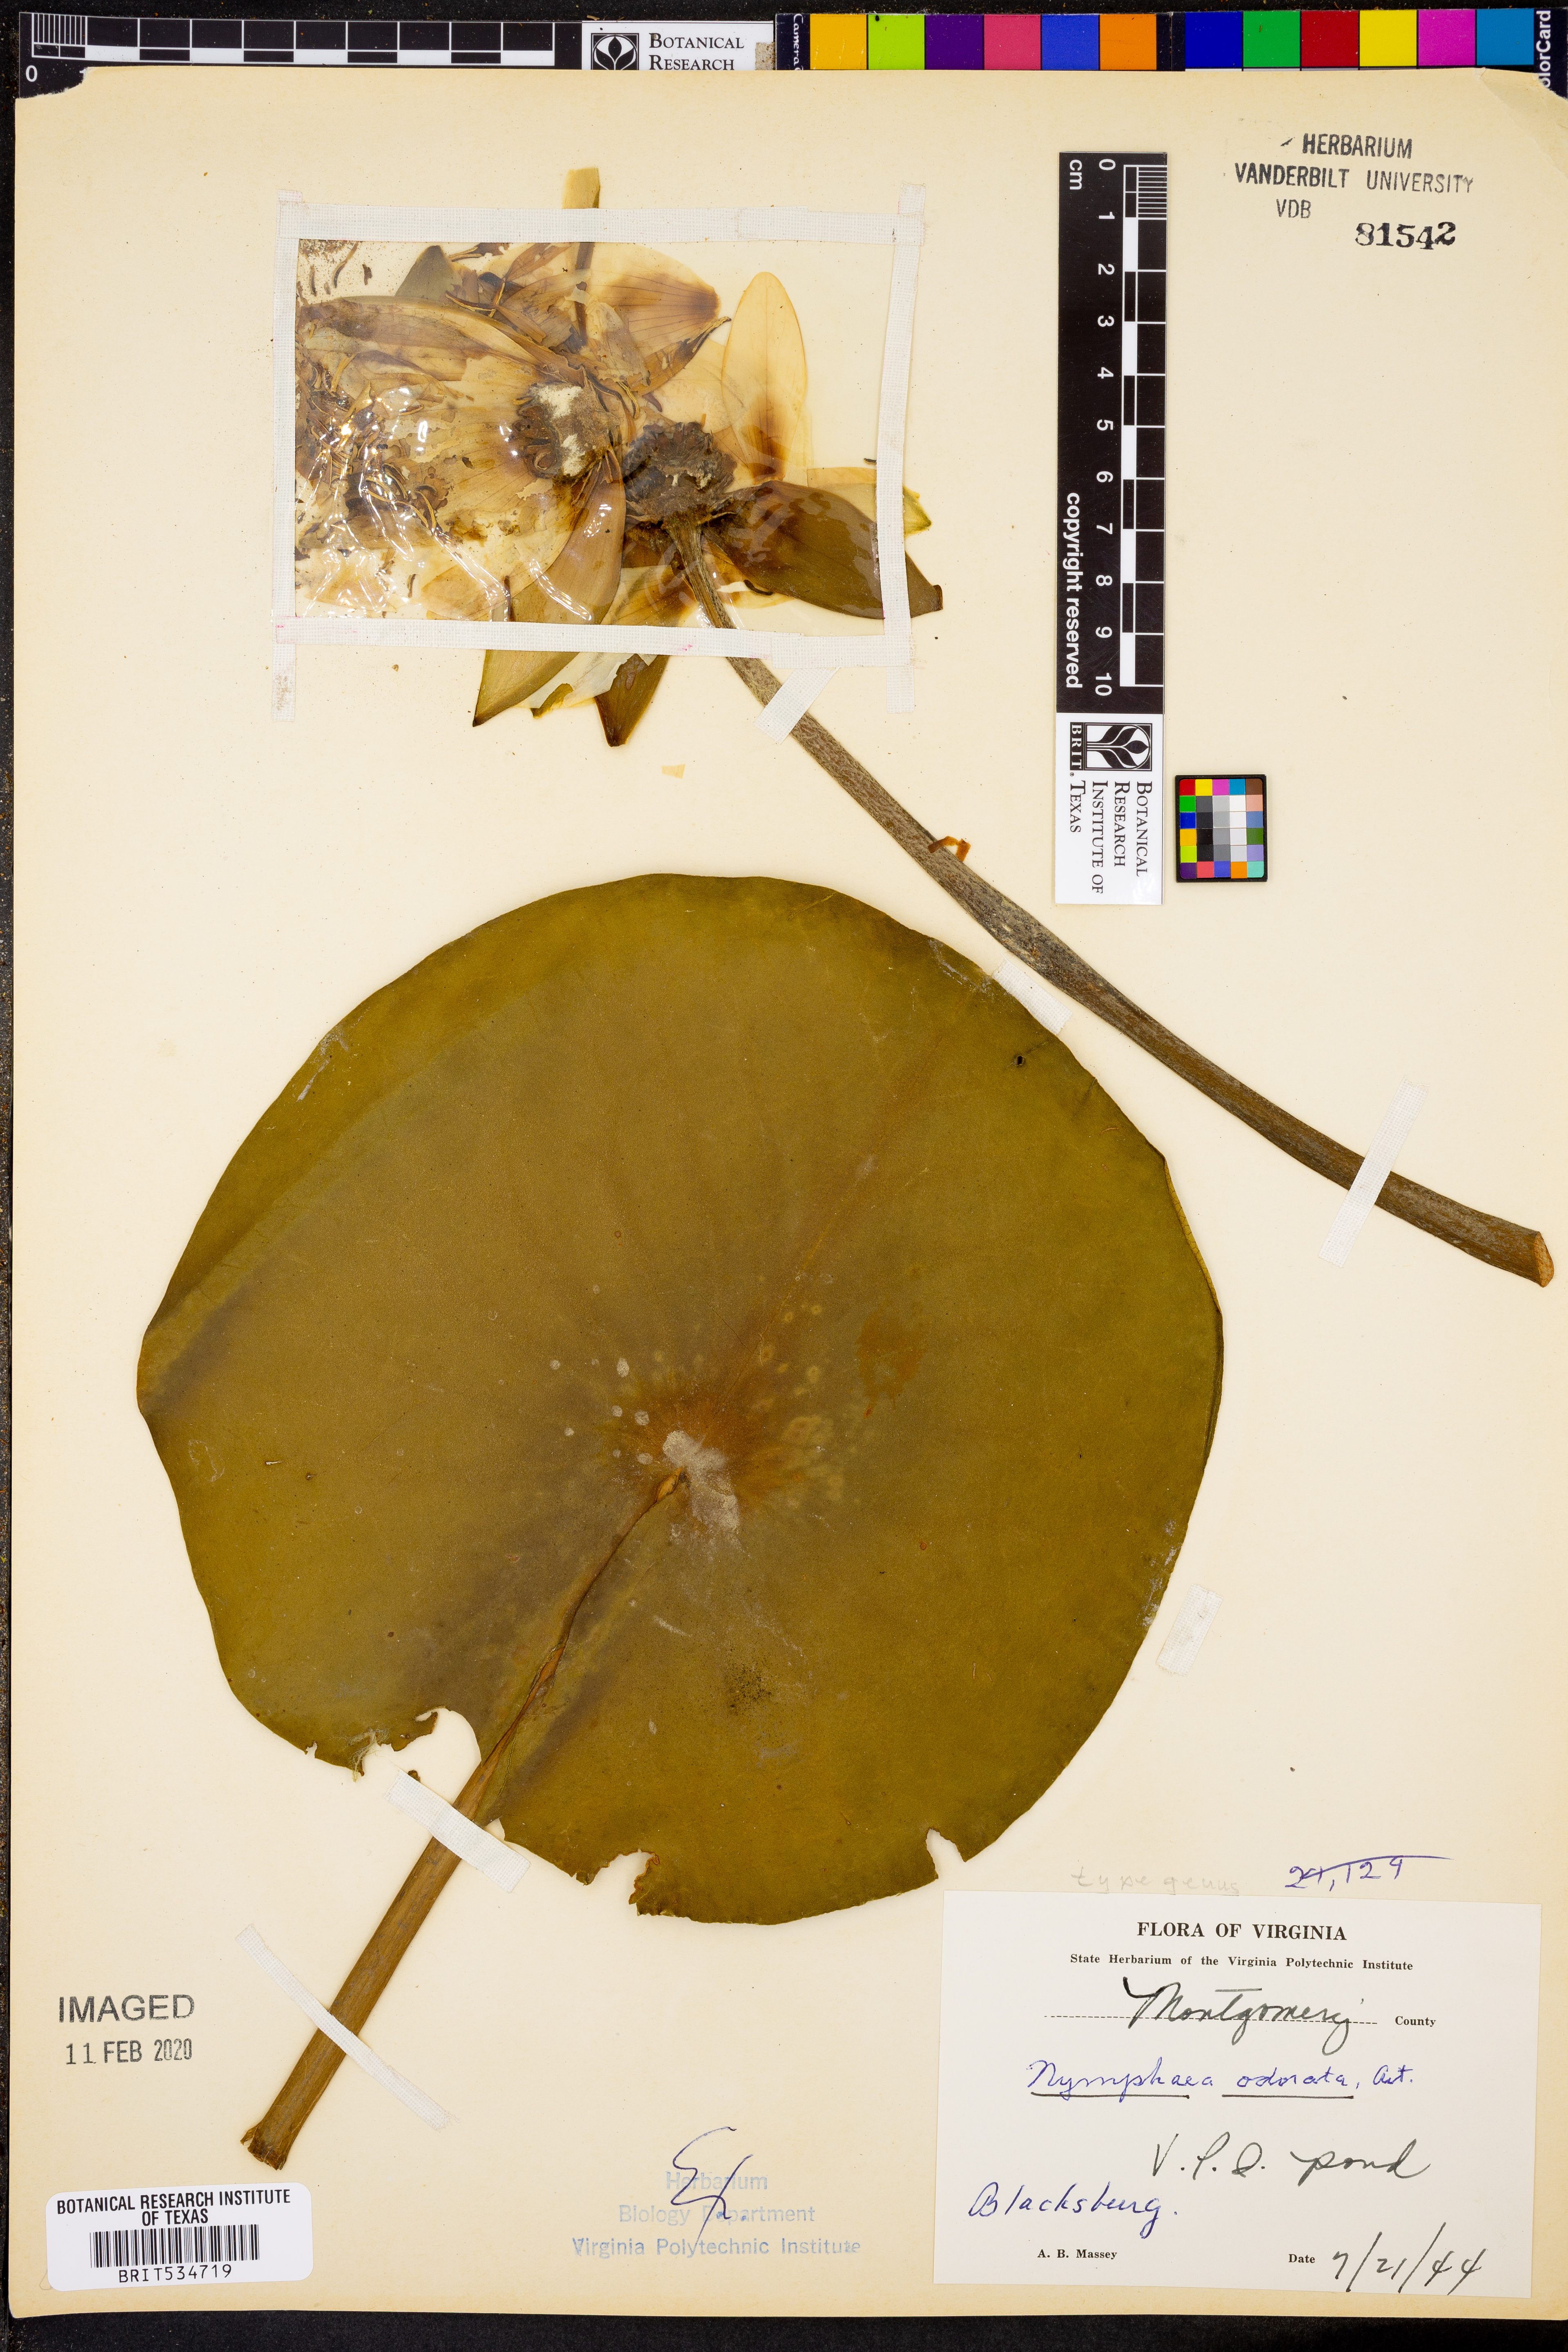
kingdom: Plantae
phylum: Tracheophyta
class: Magnoliopsida
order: Nymphaeales
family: Nymphaeaceae
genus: Nymphaea
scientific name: Nymphaea odorata
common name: Fragrant water-lily
